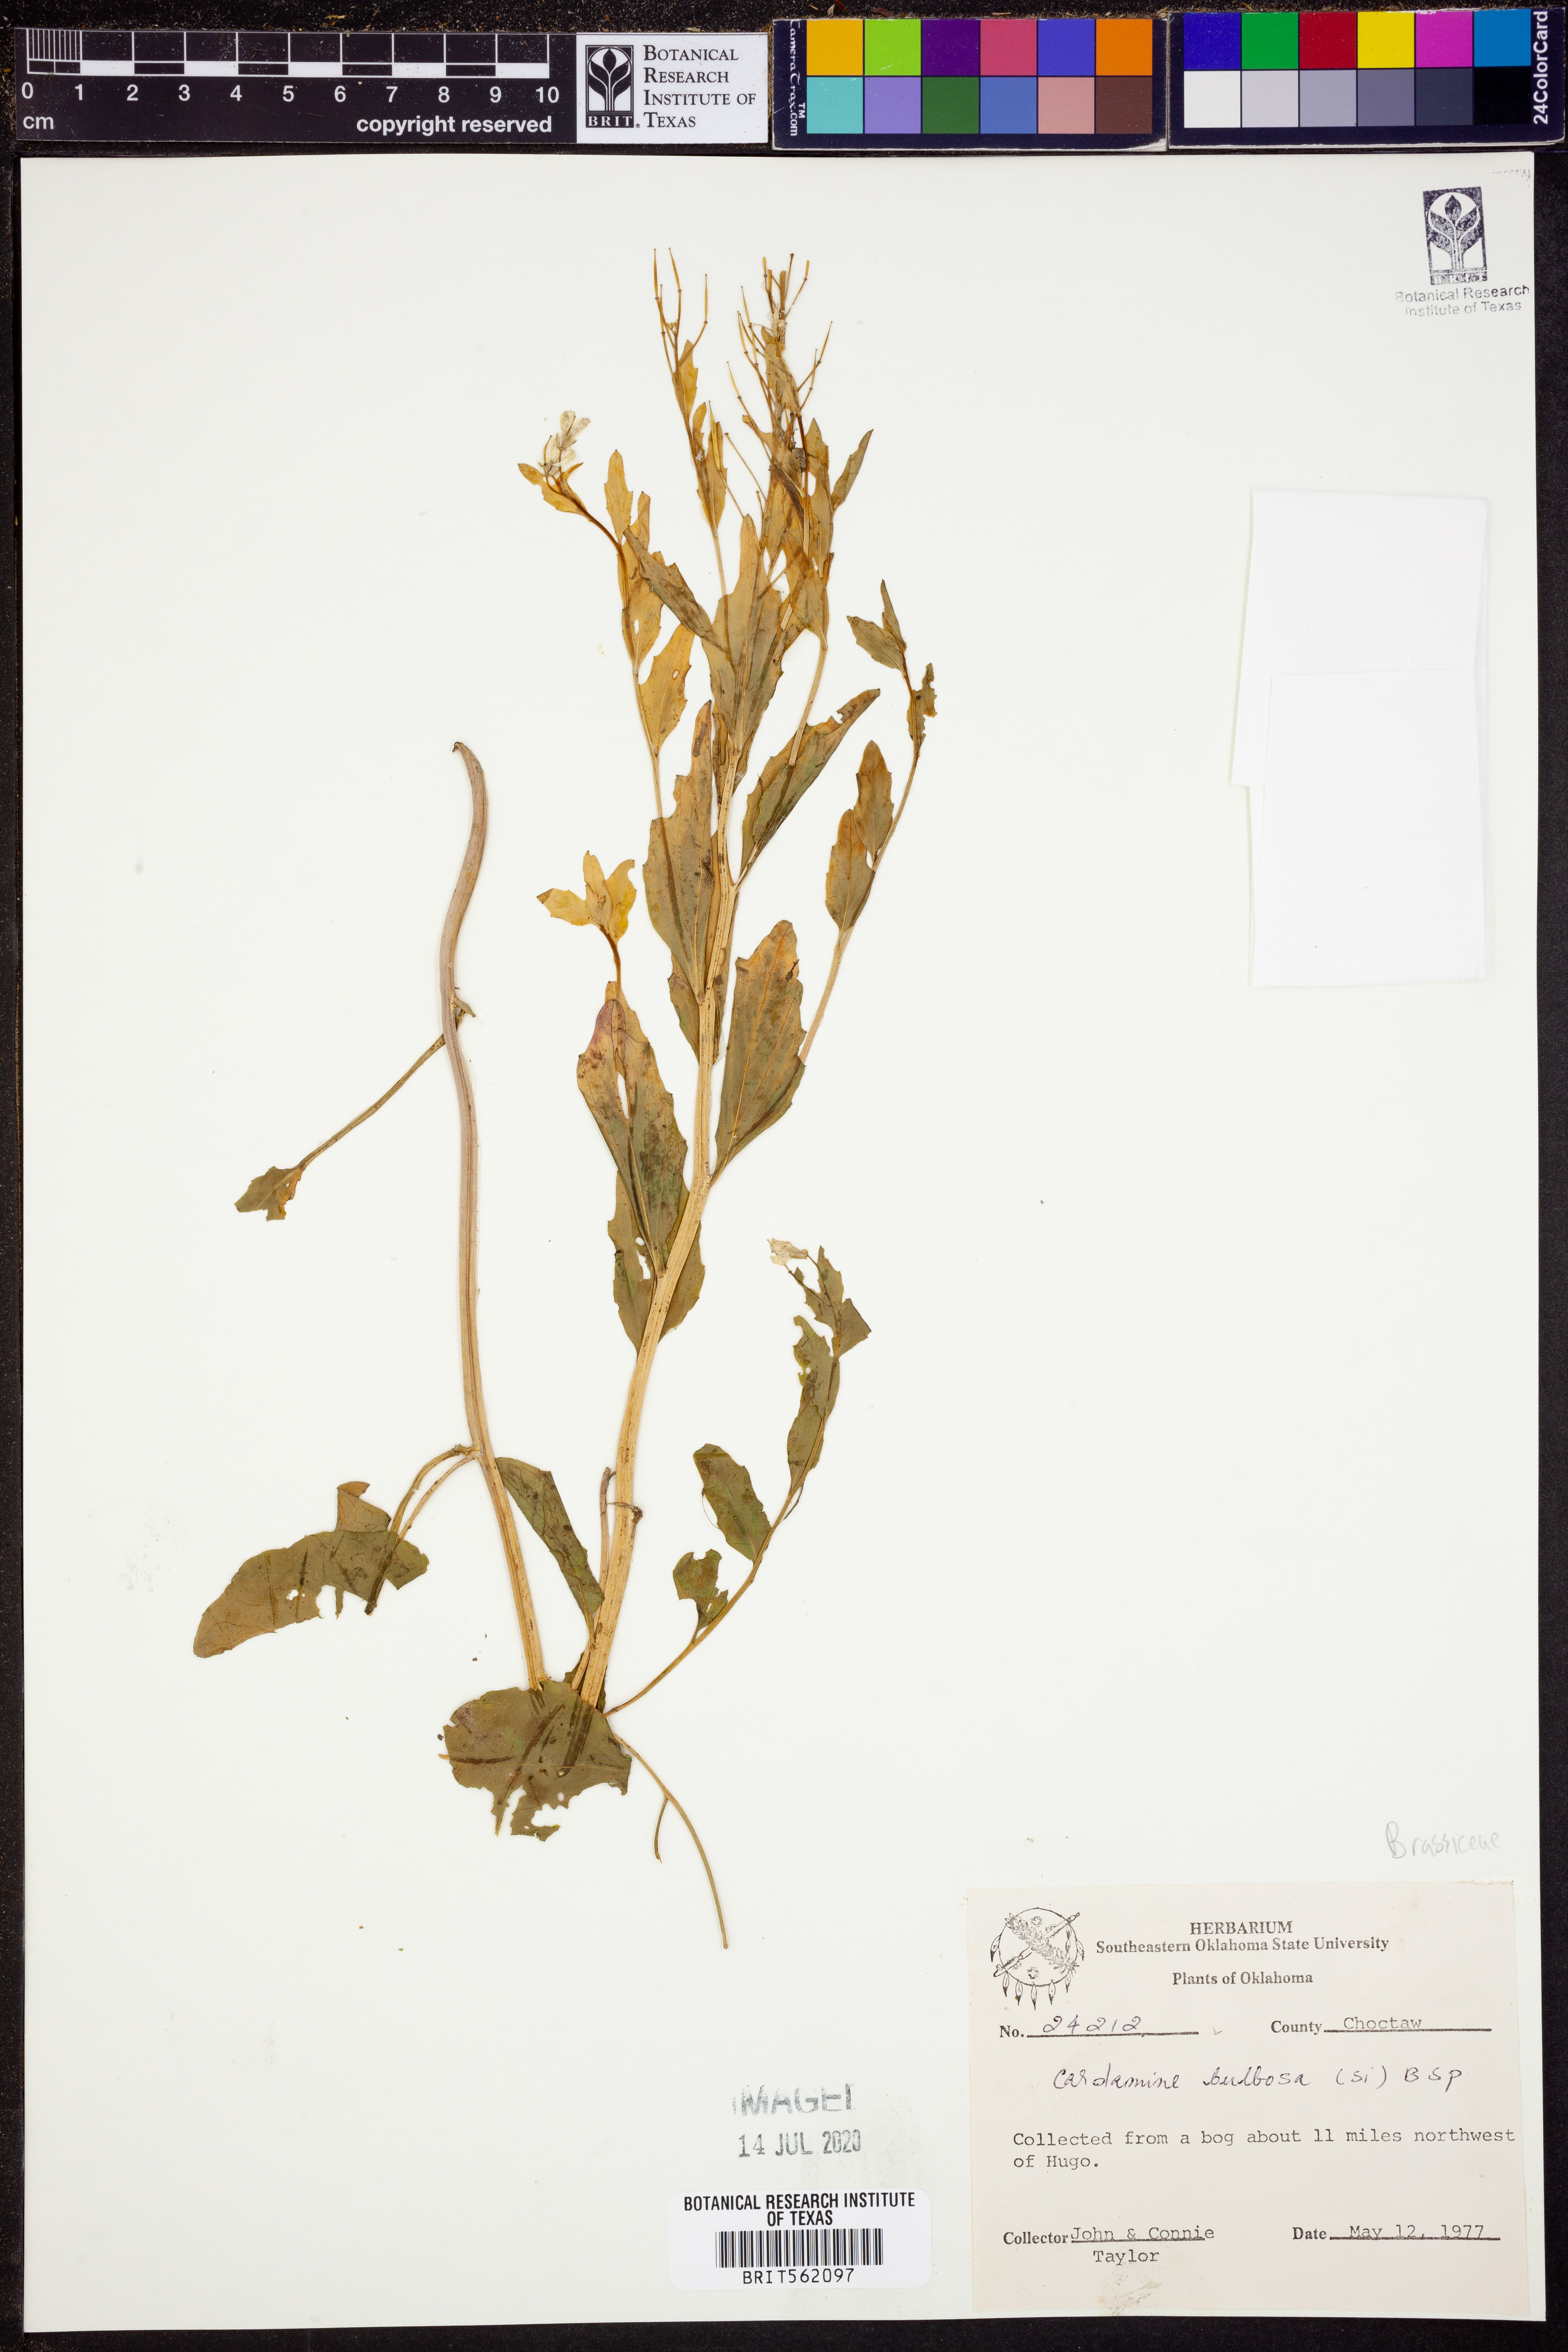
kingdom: Plantae
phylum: Tracheophyta
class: Magnoliopsida
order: Brassicales
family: Brassicaceae
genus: Cardamine
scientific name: Cardamine bulbosa
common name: Spring cress
